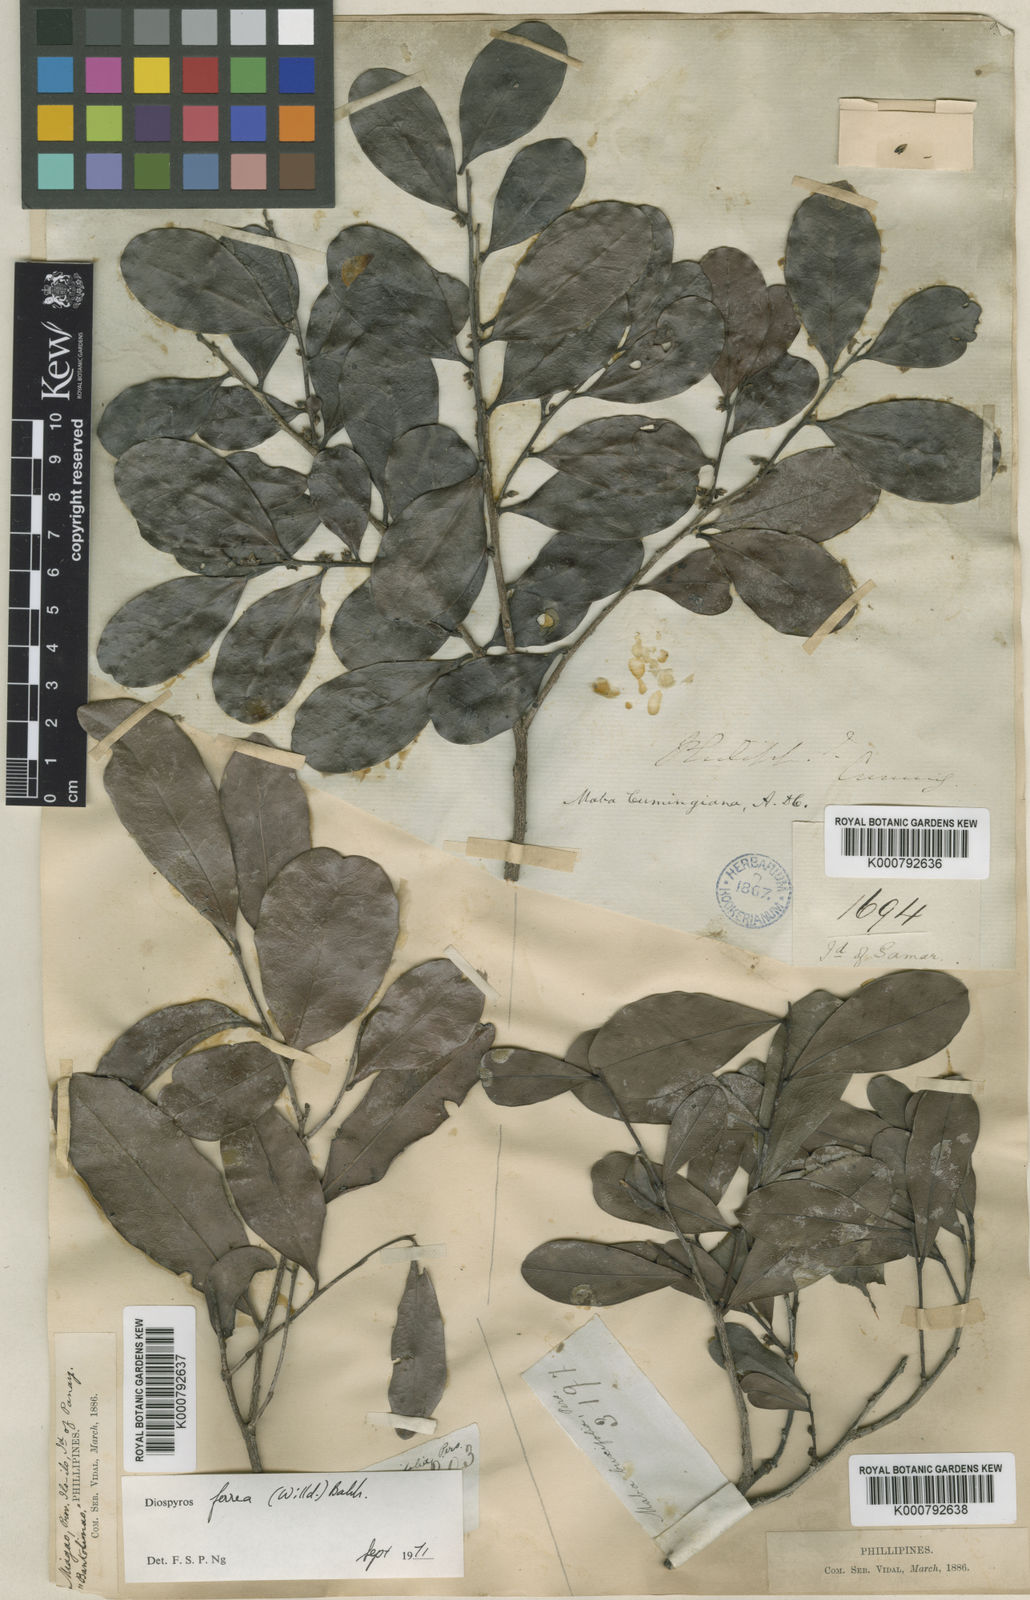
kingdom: Plantae
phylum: Tracheophyta
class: Magnoliopsida
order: Ericales
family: Ebenaceae
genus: Diospyros
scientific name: Diospyros multibracteata
